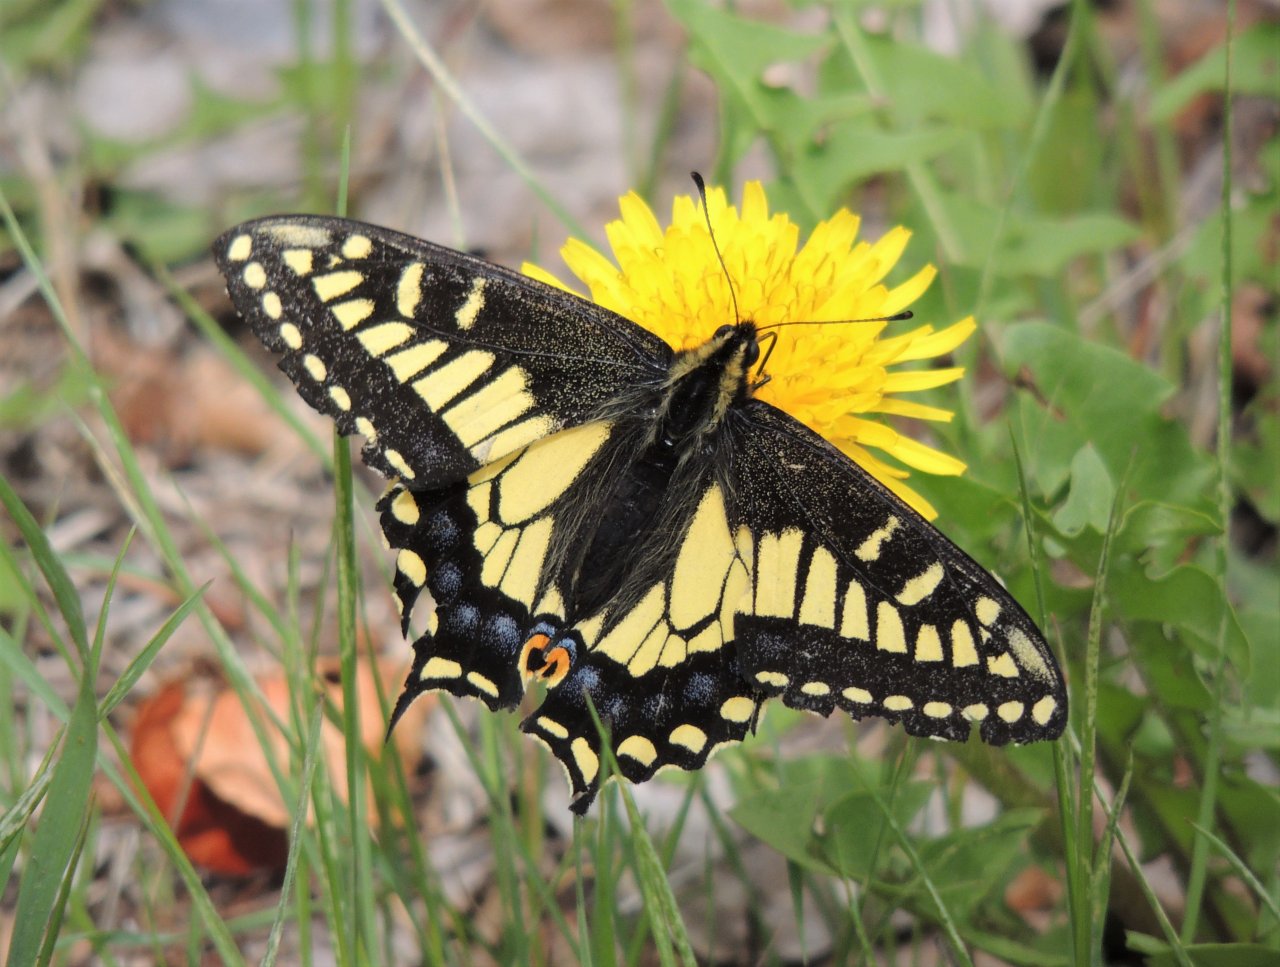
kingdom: Animalia
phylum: Arthropoda
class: Insecta
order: Lepidoptera
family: Papilionidae
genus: Papilio
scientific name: Papilio zelicaon
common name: Anise Swallowtail
